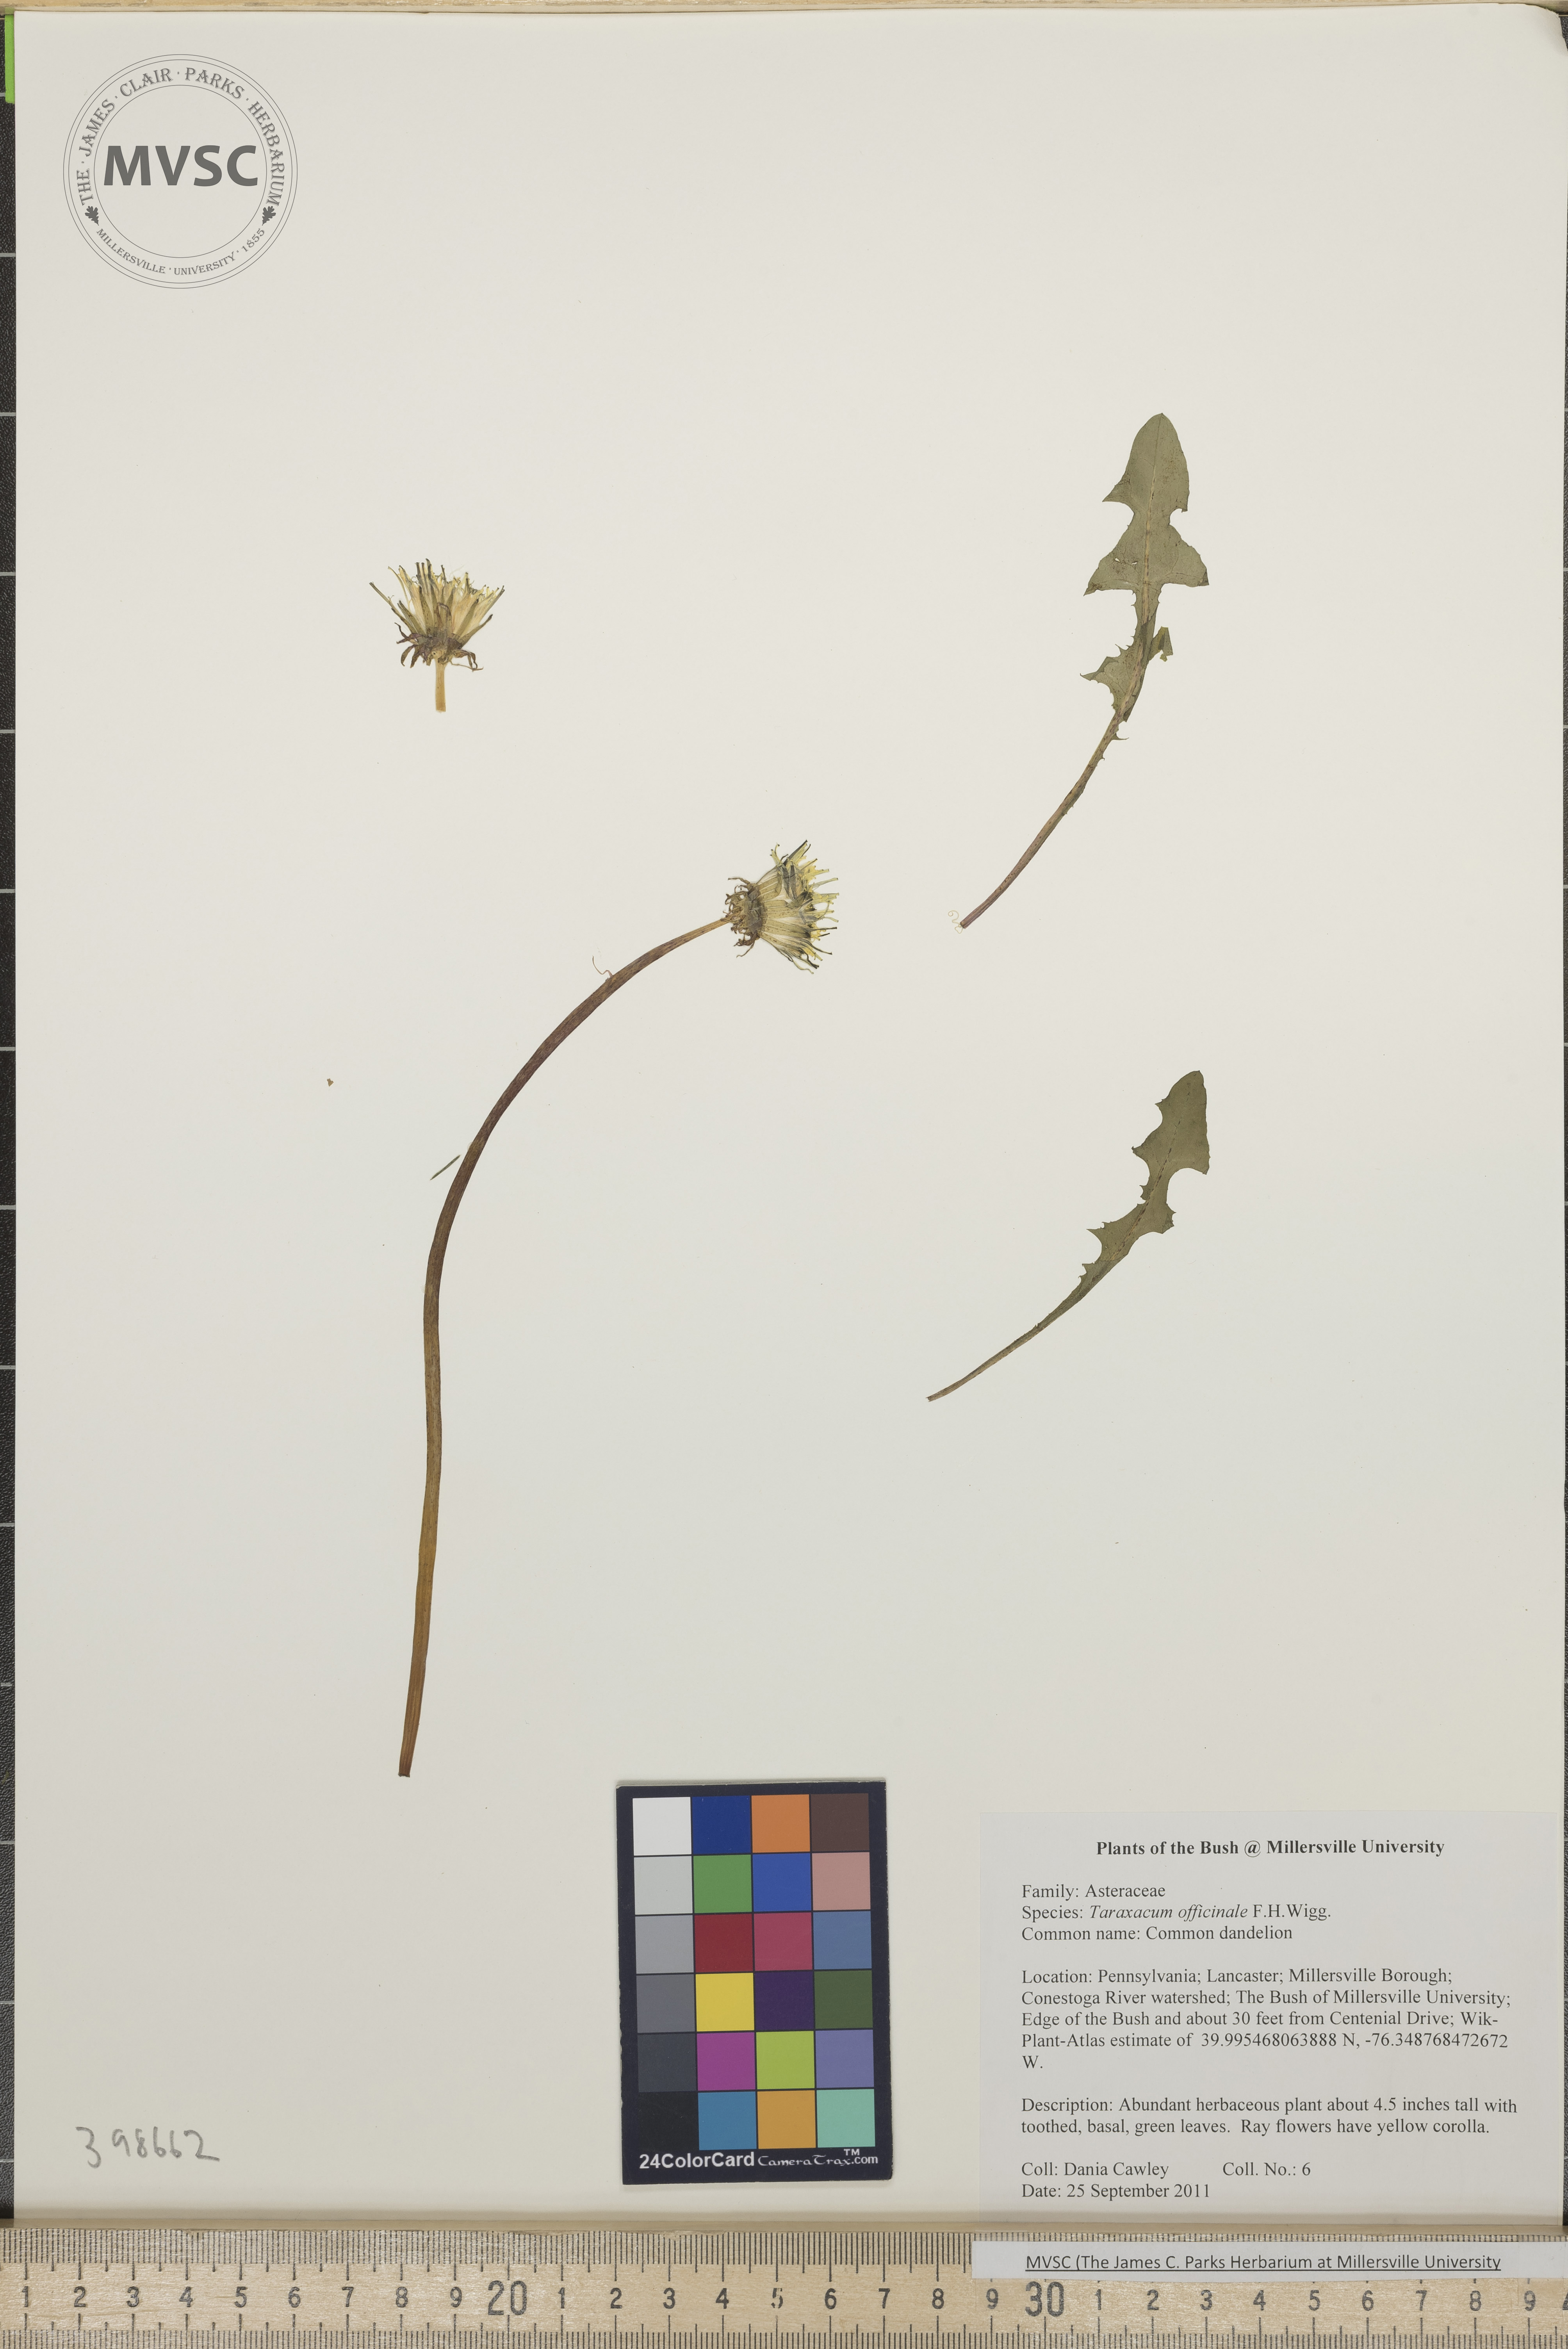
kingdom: Plantae
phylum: Tracheophyta
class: Magnoliopsida
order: Asterales
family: Asteraceae
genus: Taraxacum
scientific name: Taraxacum officinale
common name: Common dandelion
